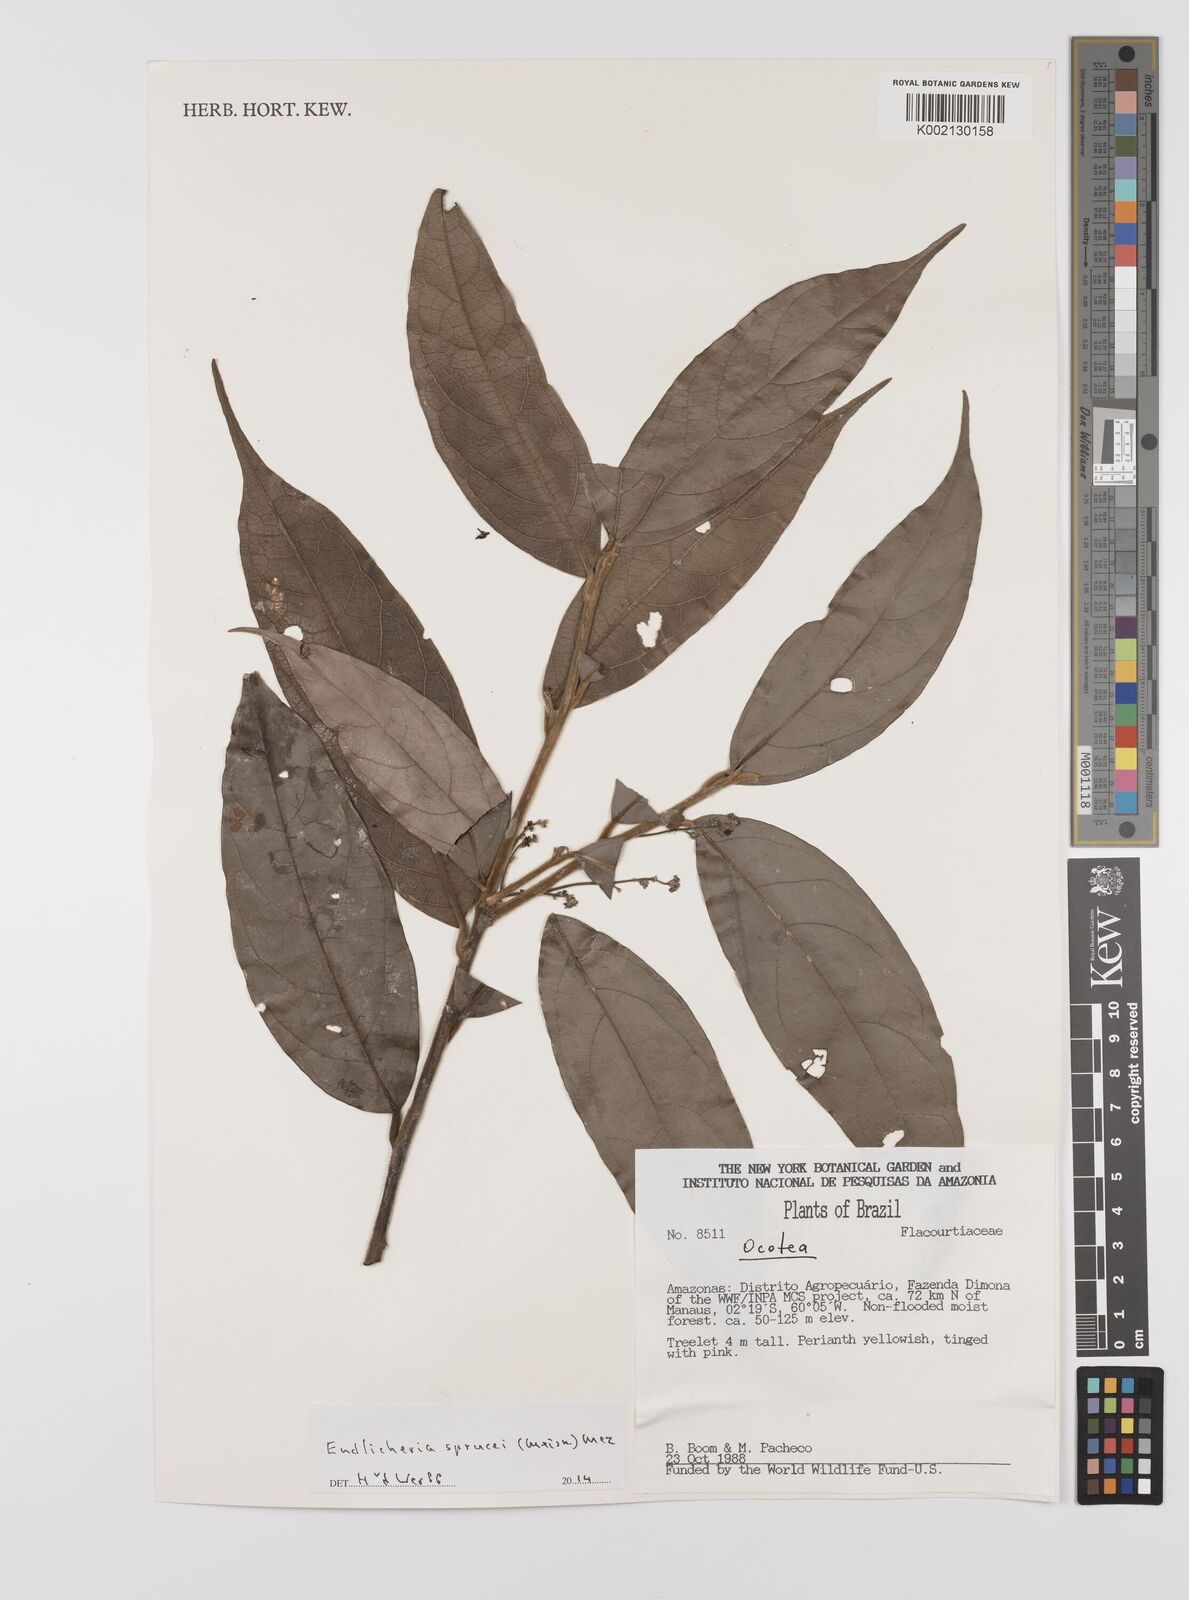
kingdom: Plantae
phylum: Tracheophyta
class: Magnoliopsida
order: Laurales
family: Lauraceae
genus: Endlicheria
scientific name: Endlicheria sprucei
